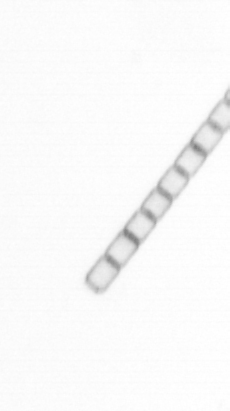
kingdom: Chromista
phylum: Ochrophyta
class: Bacillariophyceae
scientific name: Bacillariophyceae
